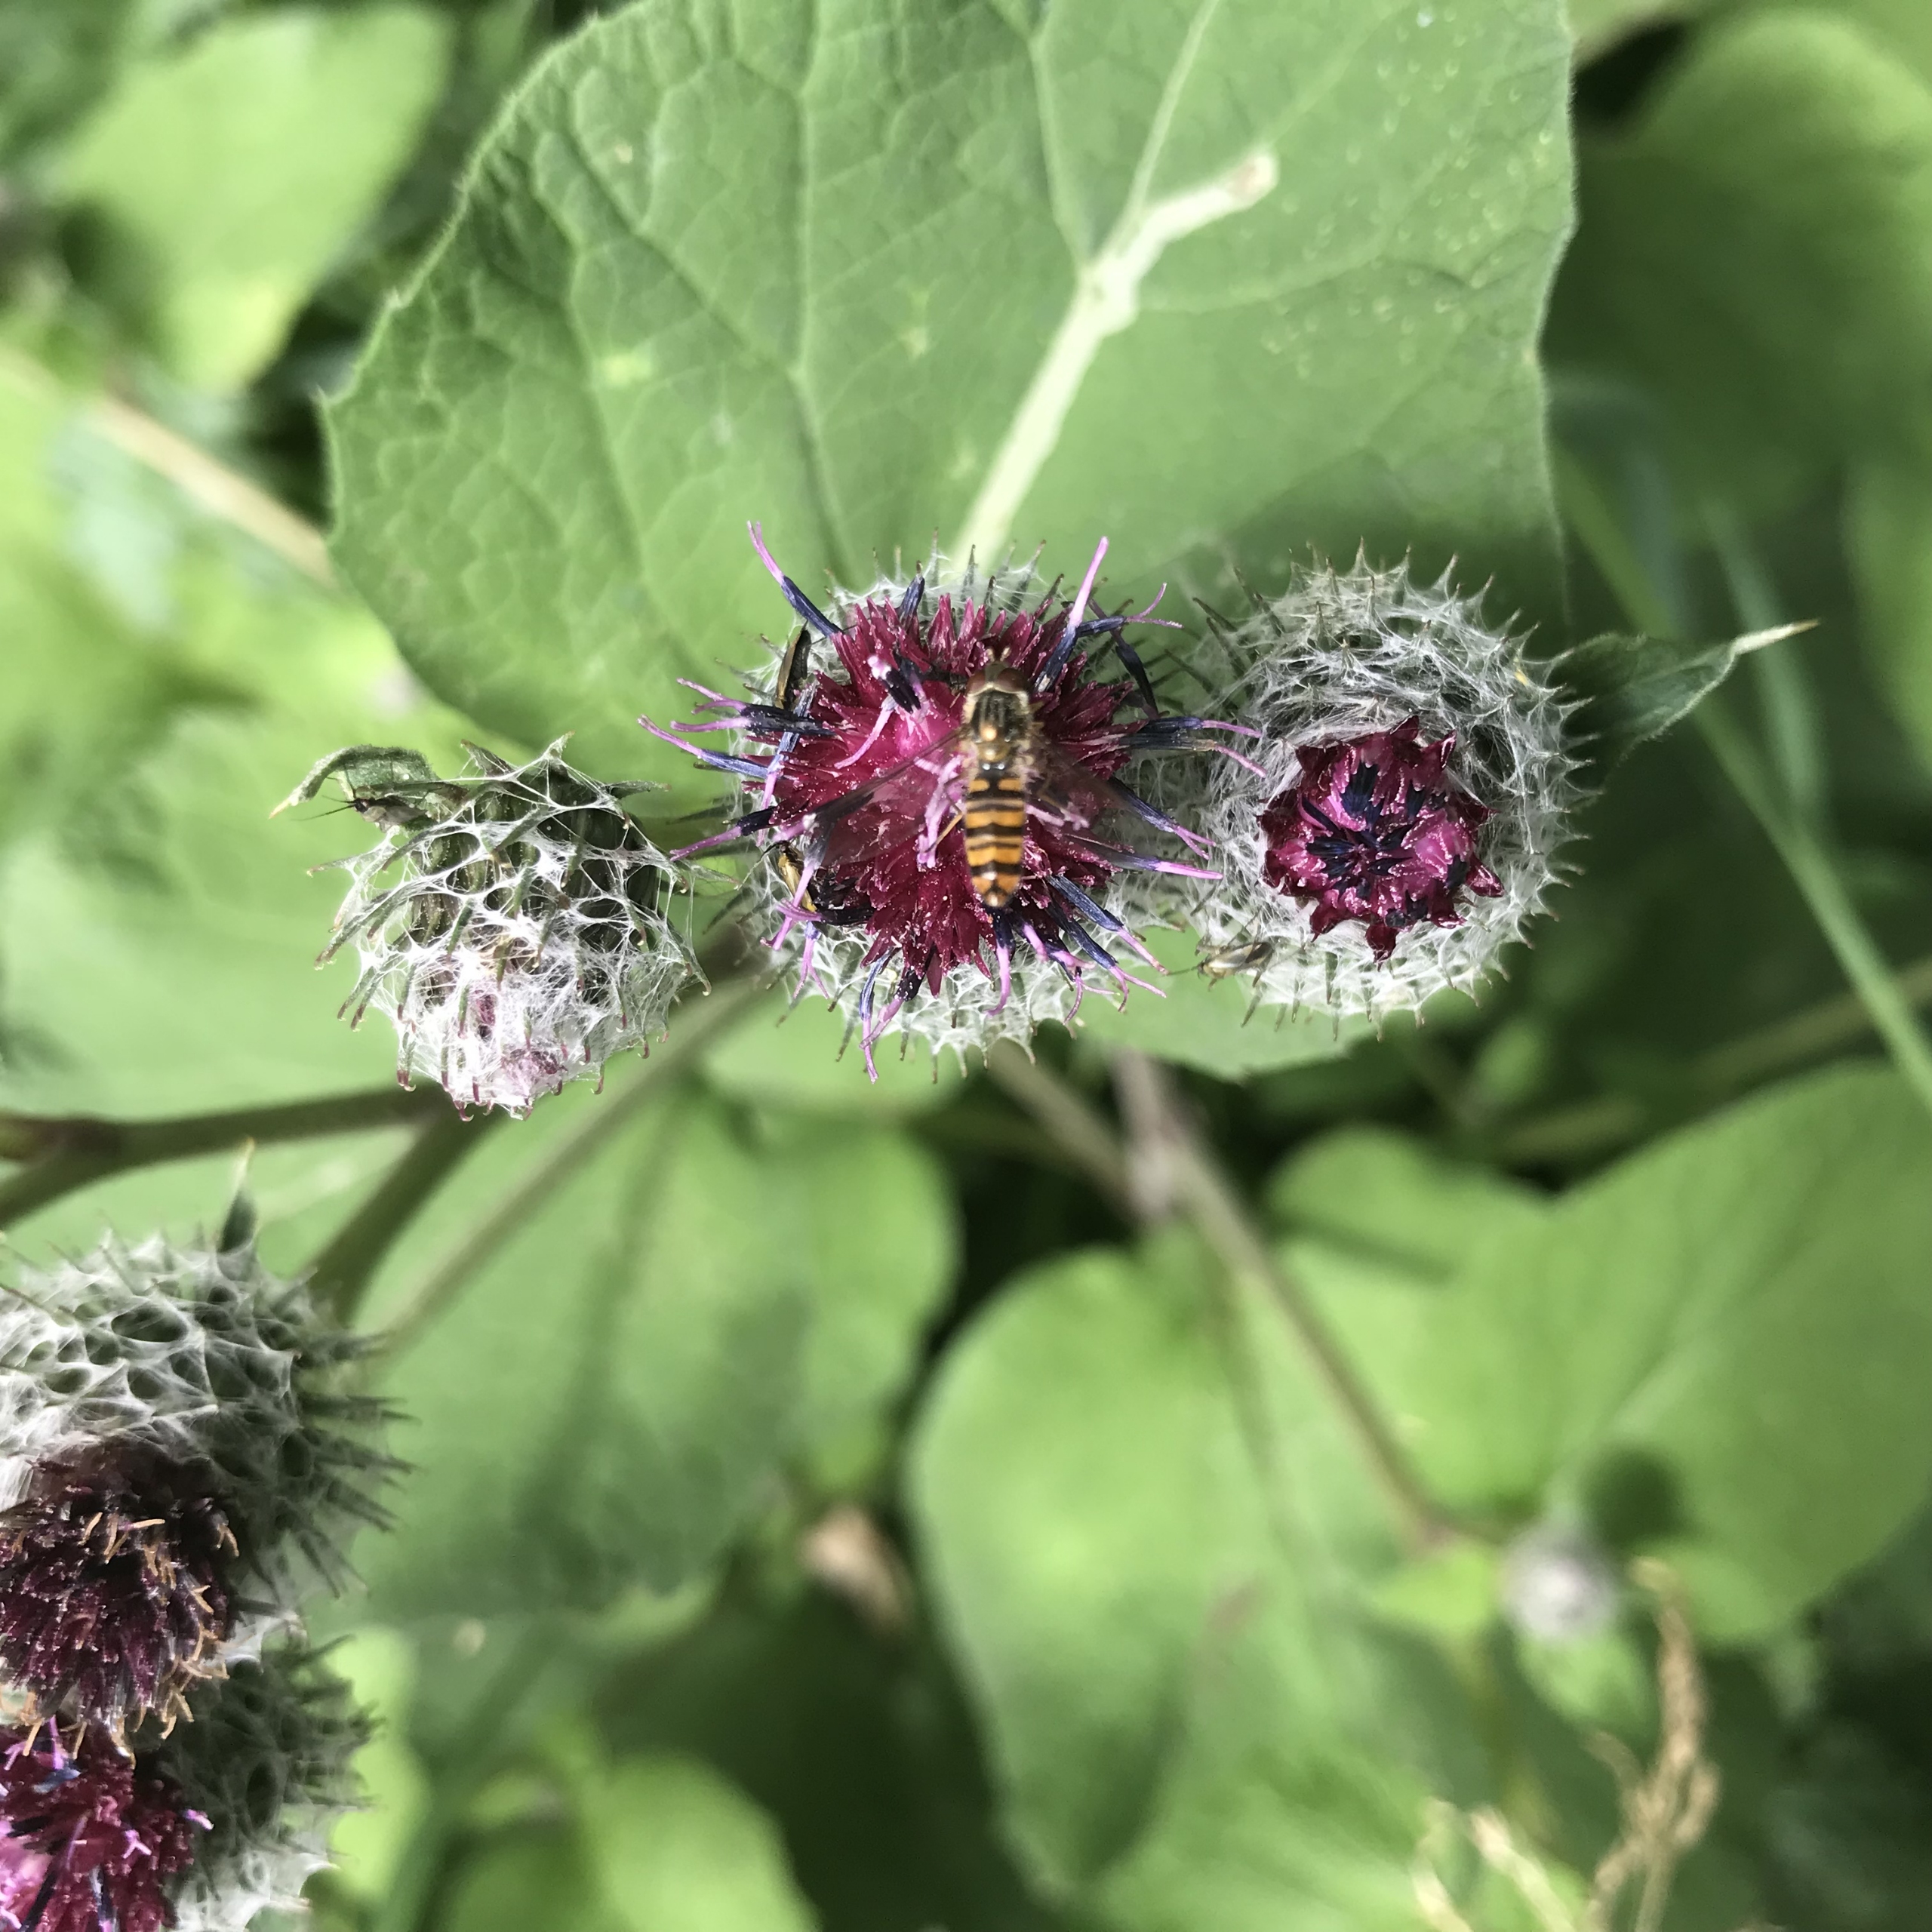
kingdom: Animalia
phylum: Arthropoda
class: Insecta
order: Diptera
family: Syrphidae
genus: Episyrphus
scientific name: Episyrphus balteatus
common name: Dobbeltbåndet svirreflue
